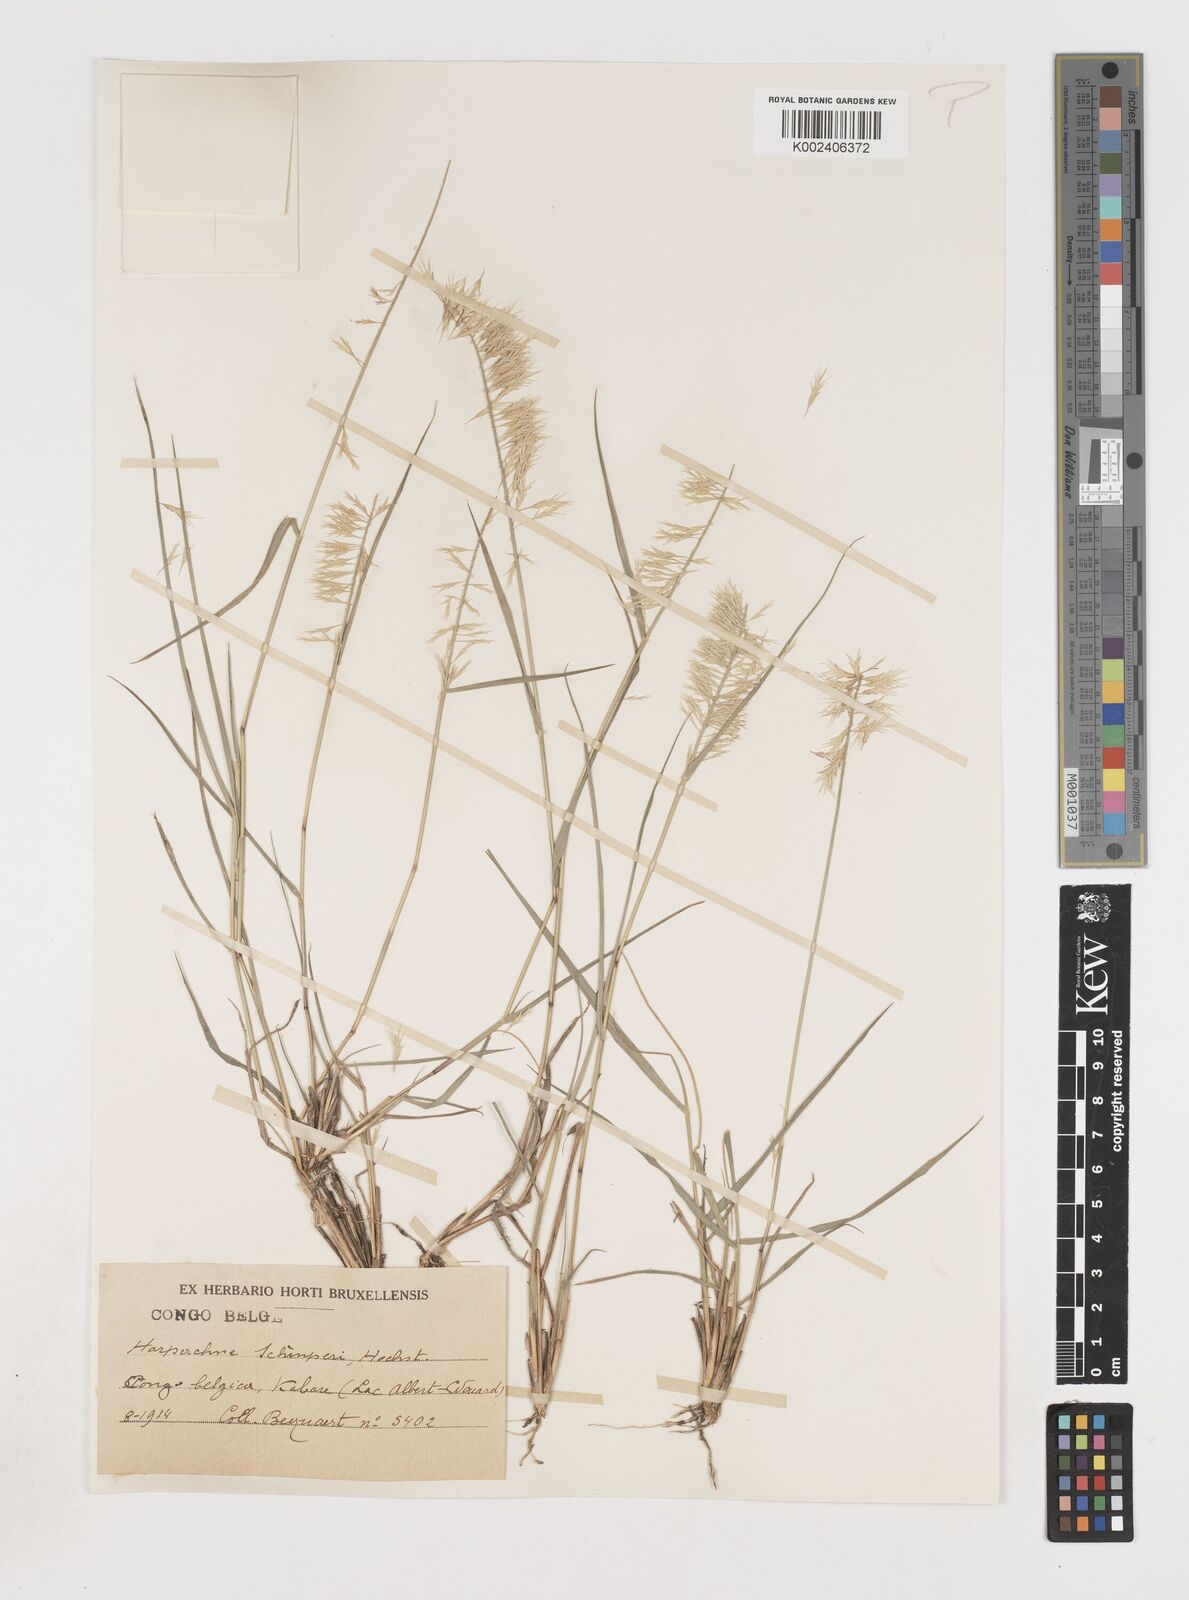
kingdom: Plantae
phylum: Tracheophyta
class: Liliopsida
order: Poales
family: Poaceae
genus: Harpachne
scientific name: Harpachne schimperi
